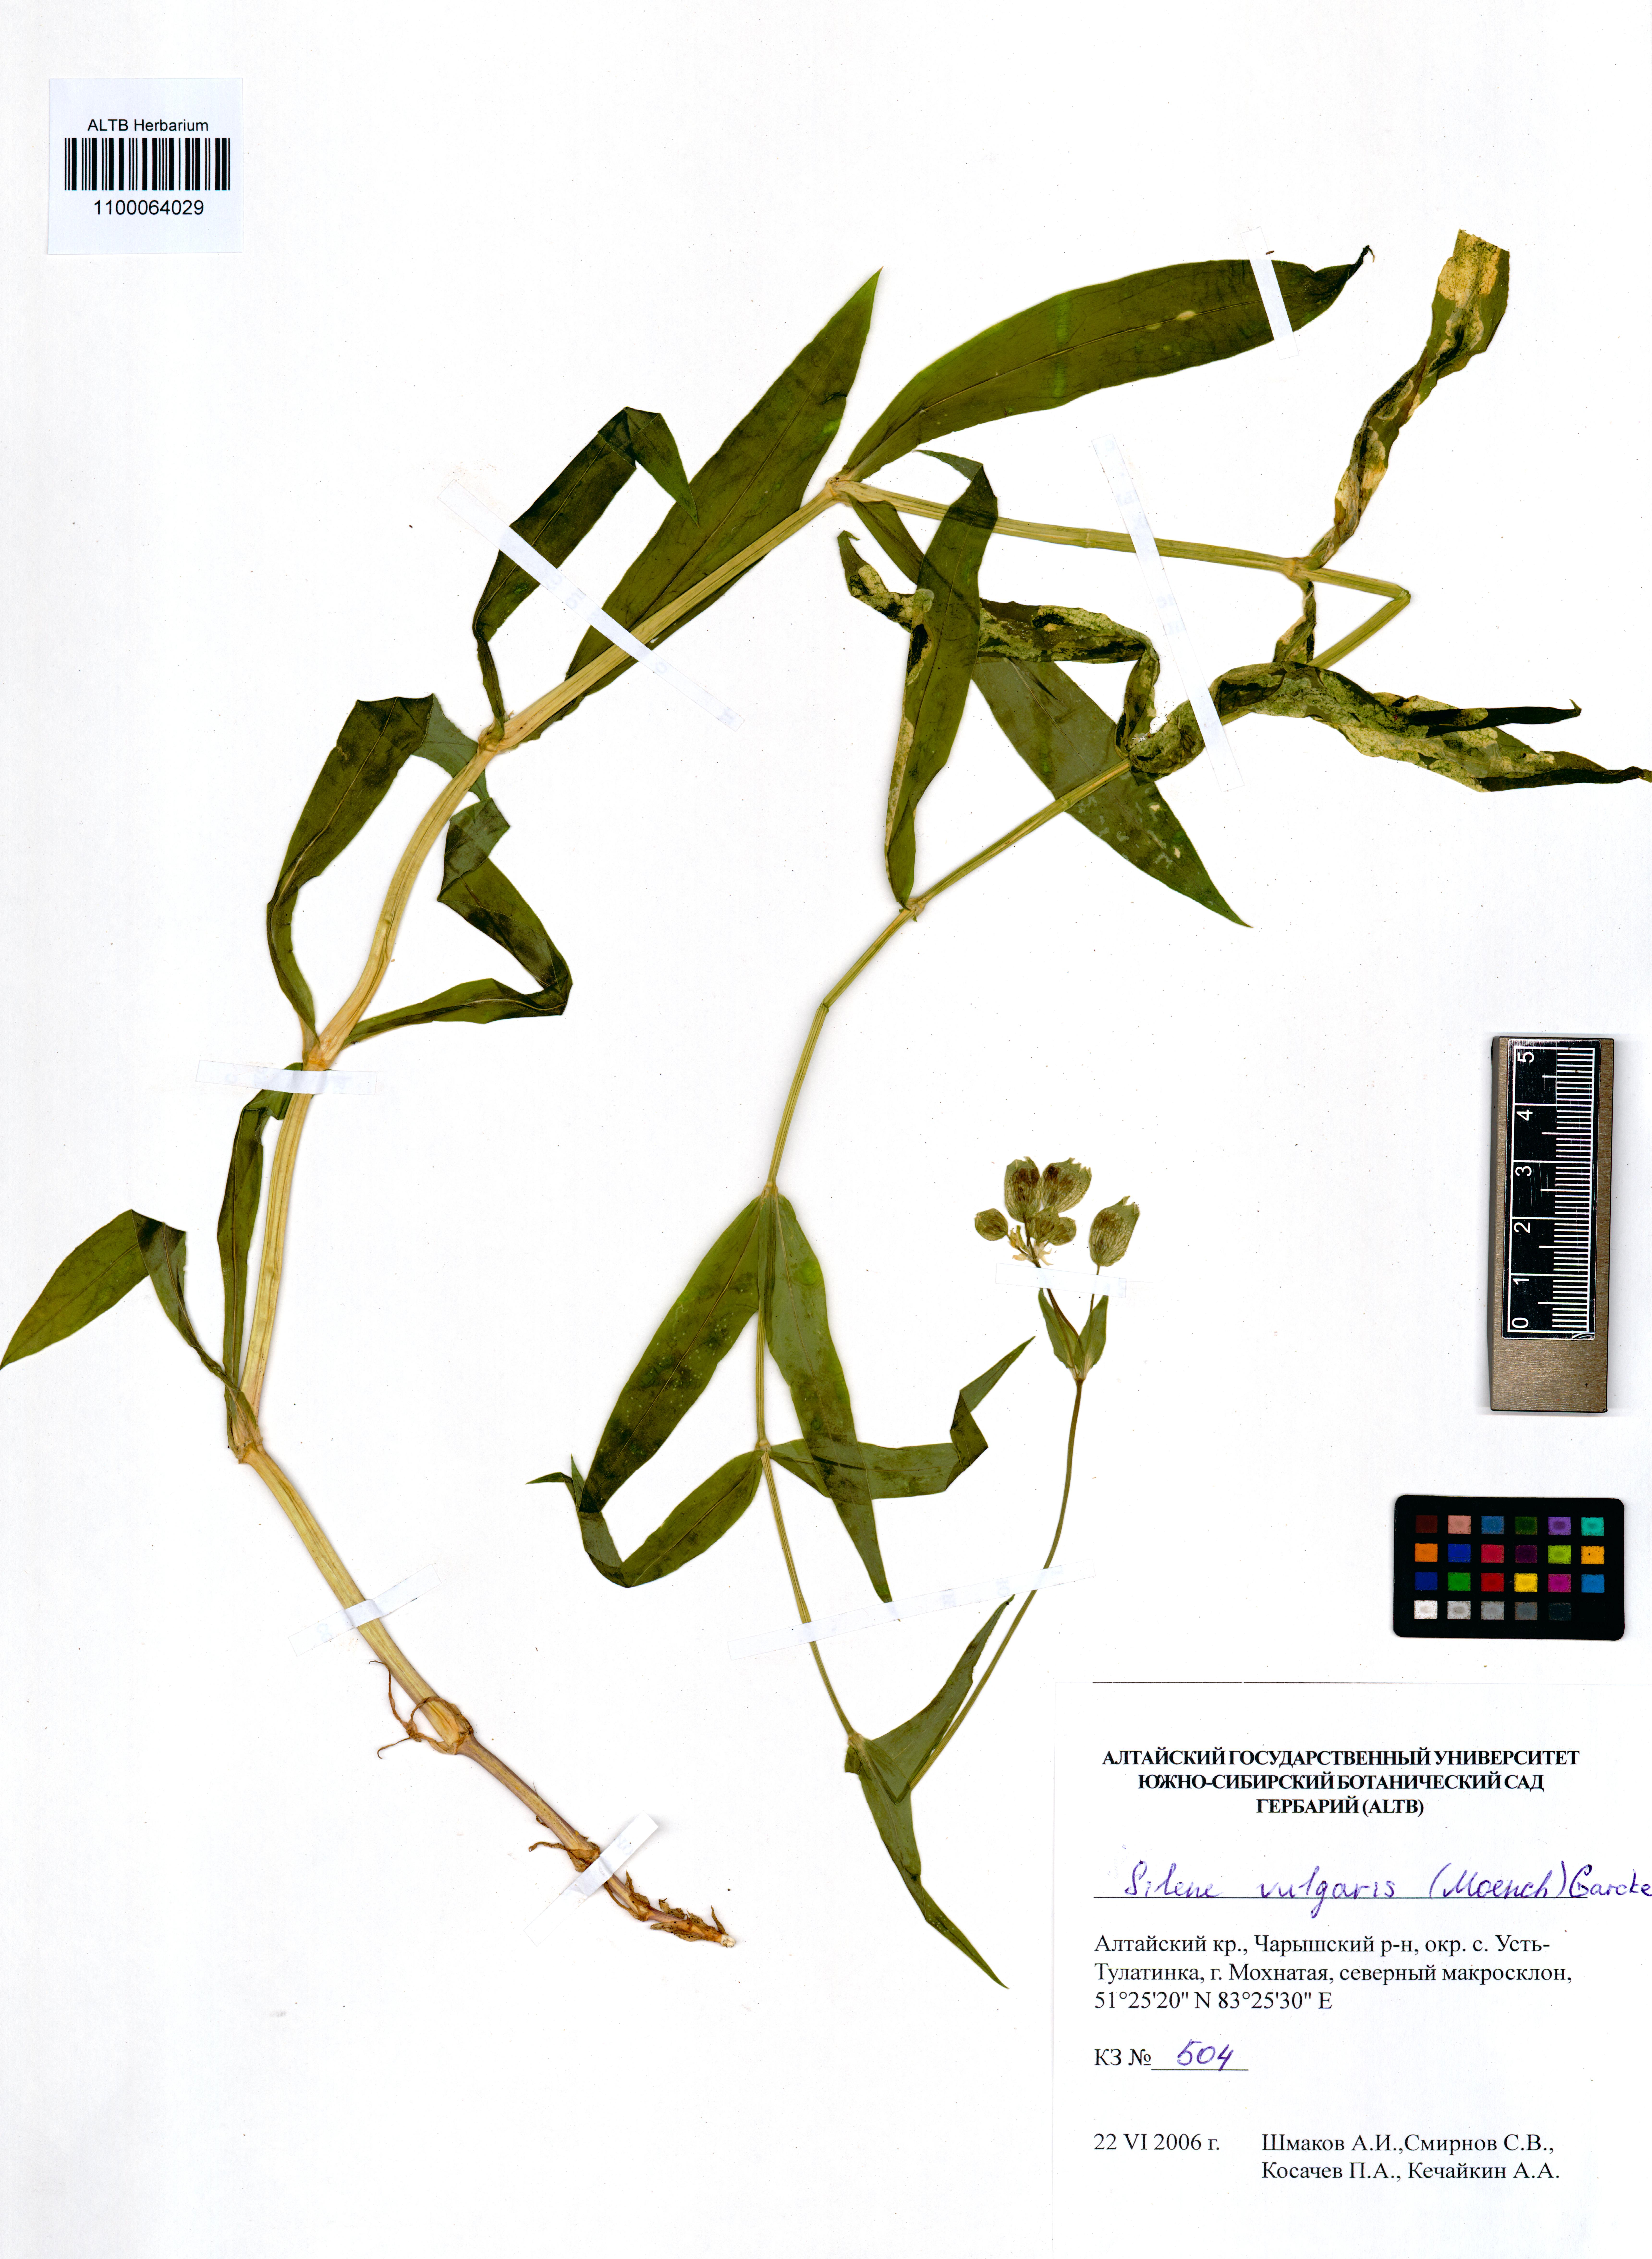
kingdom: Plantae
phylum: Tracheophyta
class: Magnoliopsida
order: Caryophyllales
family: Caryophyllaceae
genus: Silene
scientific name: Silene vulgaris
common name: Bladder campion
